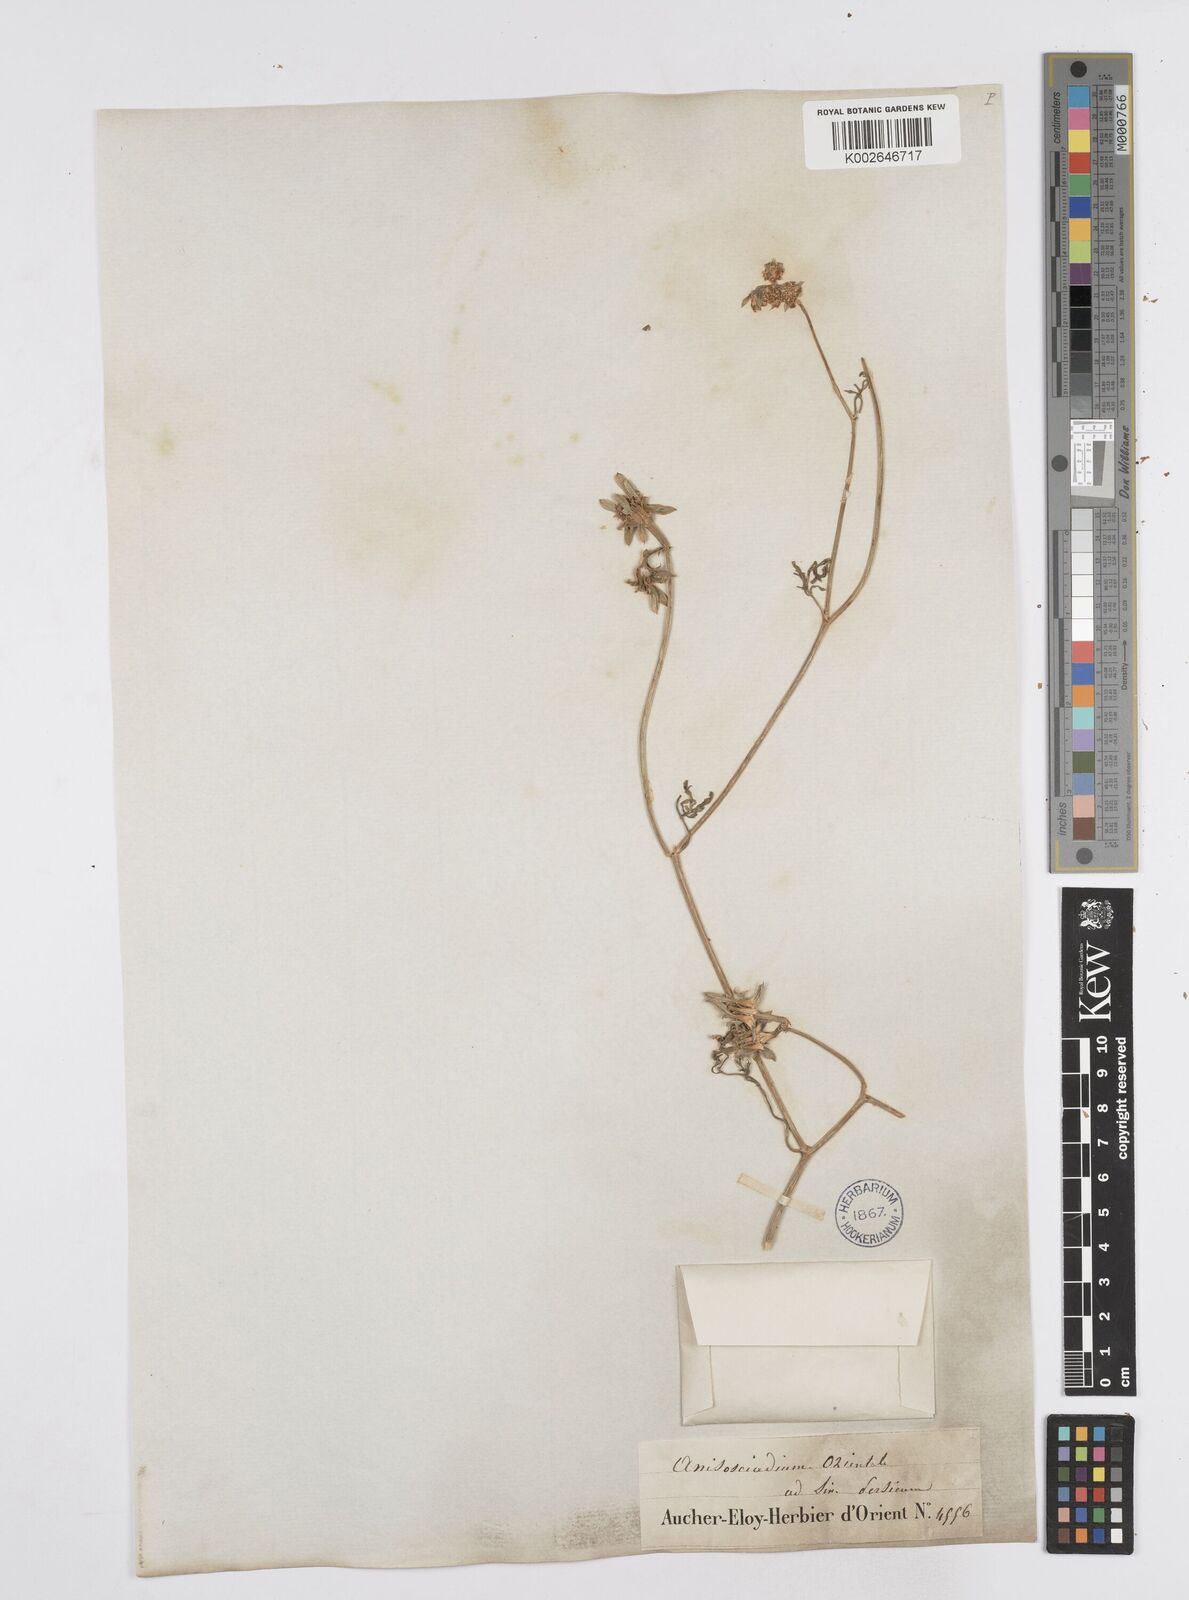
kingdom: Plantae
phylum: Tracheophyta
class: Magnoliopsida
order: Apiales
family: Apiaceae
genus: Anisosciadium
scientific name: Anisosciadium orientale
